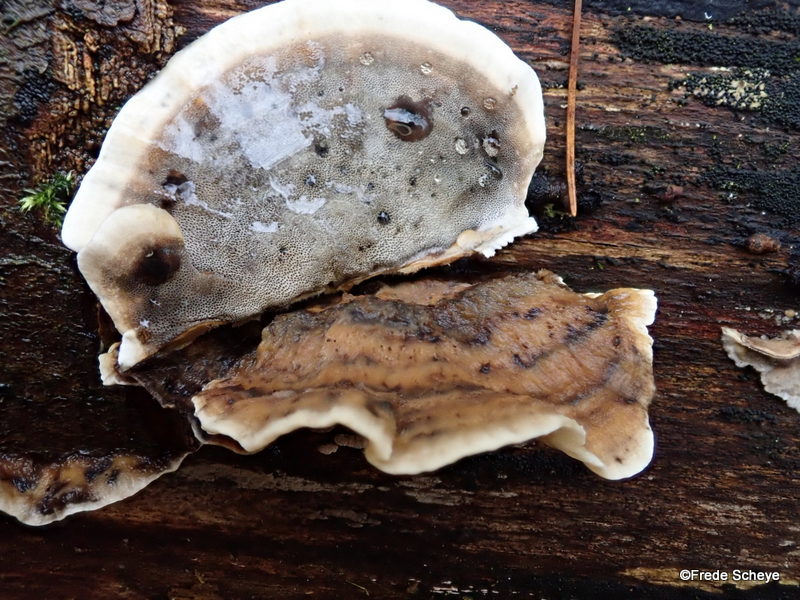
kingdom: Fungi
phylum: Basidiomycota
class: Agaricomycetes
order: Polyporales
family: Phanerochaetaceae
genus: Bjerkandera
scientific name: Bjerkandera adusta
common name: sveden sodporesvamp
